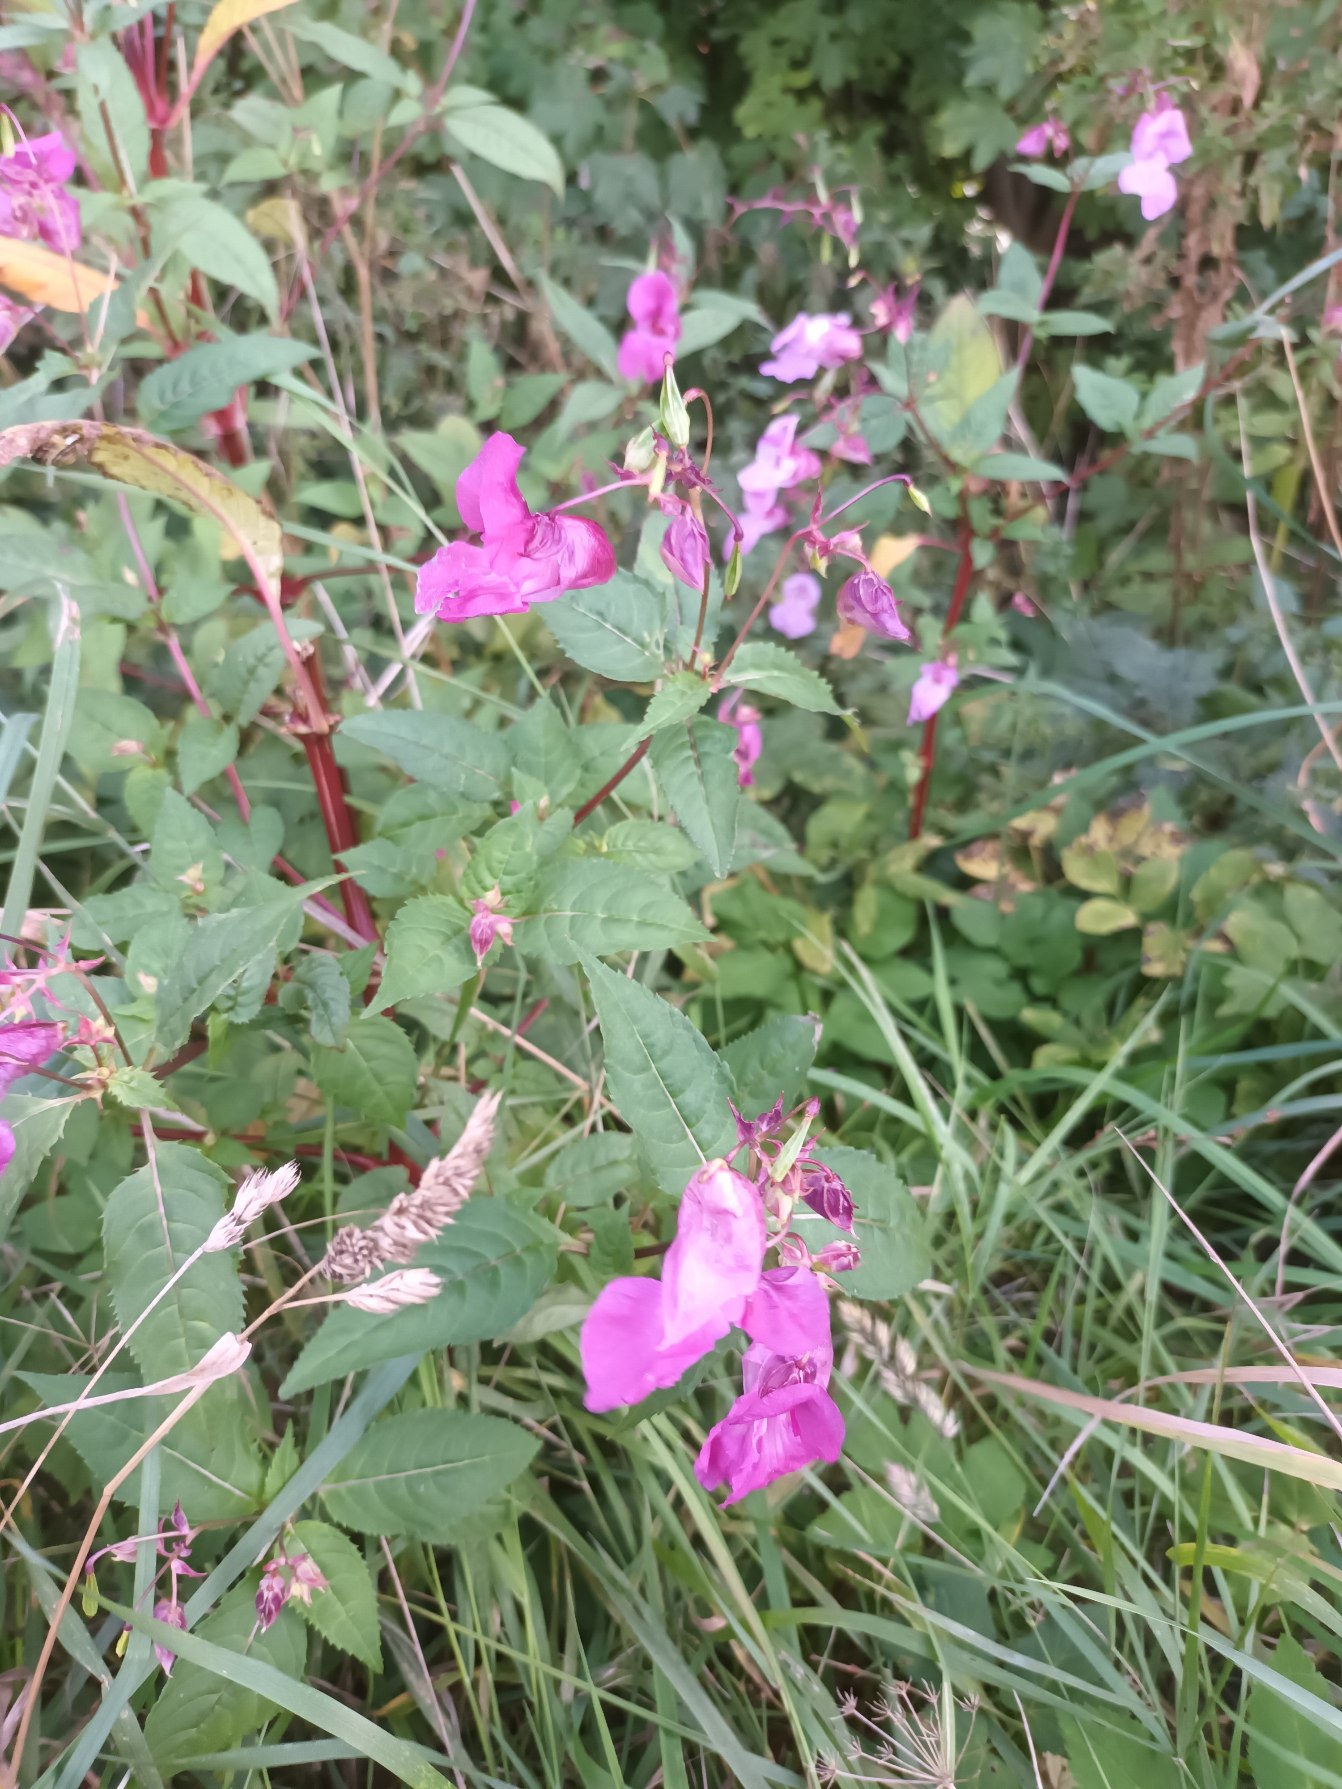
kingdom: Plantae
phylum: Tracheophyta
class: Magnoliopsida
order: Ericales
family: Balsaminaceae
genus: Impatiens
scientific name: Impatiens glandulifera
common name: Kæmpe-balsamin
